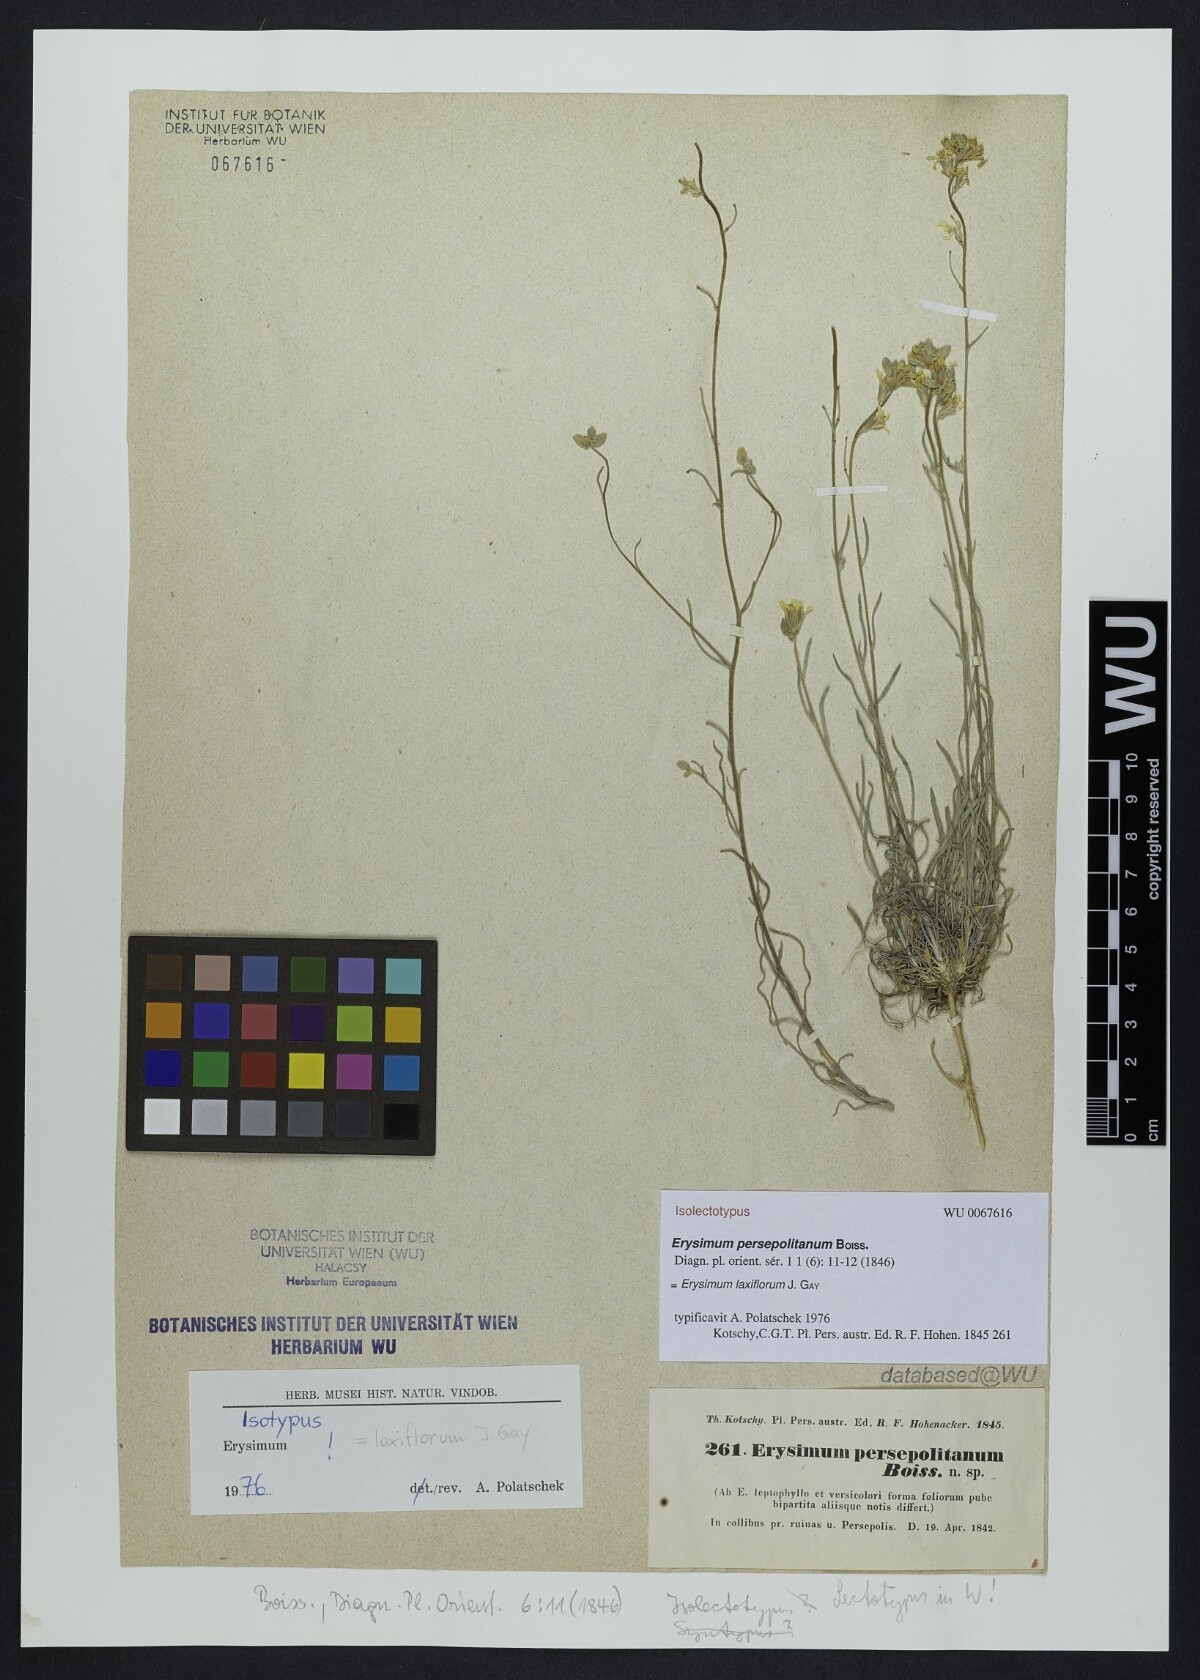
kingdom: Plantae
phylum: Tracheophyta
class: Magnoliopsida
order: Brassicales
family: Brassicaceae
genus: Erysimum
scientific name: Erysimum persepolitanum
